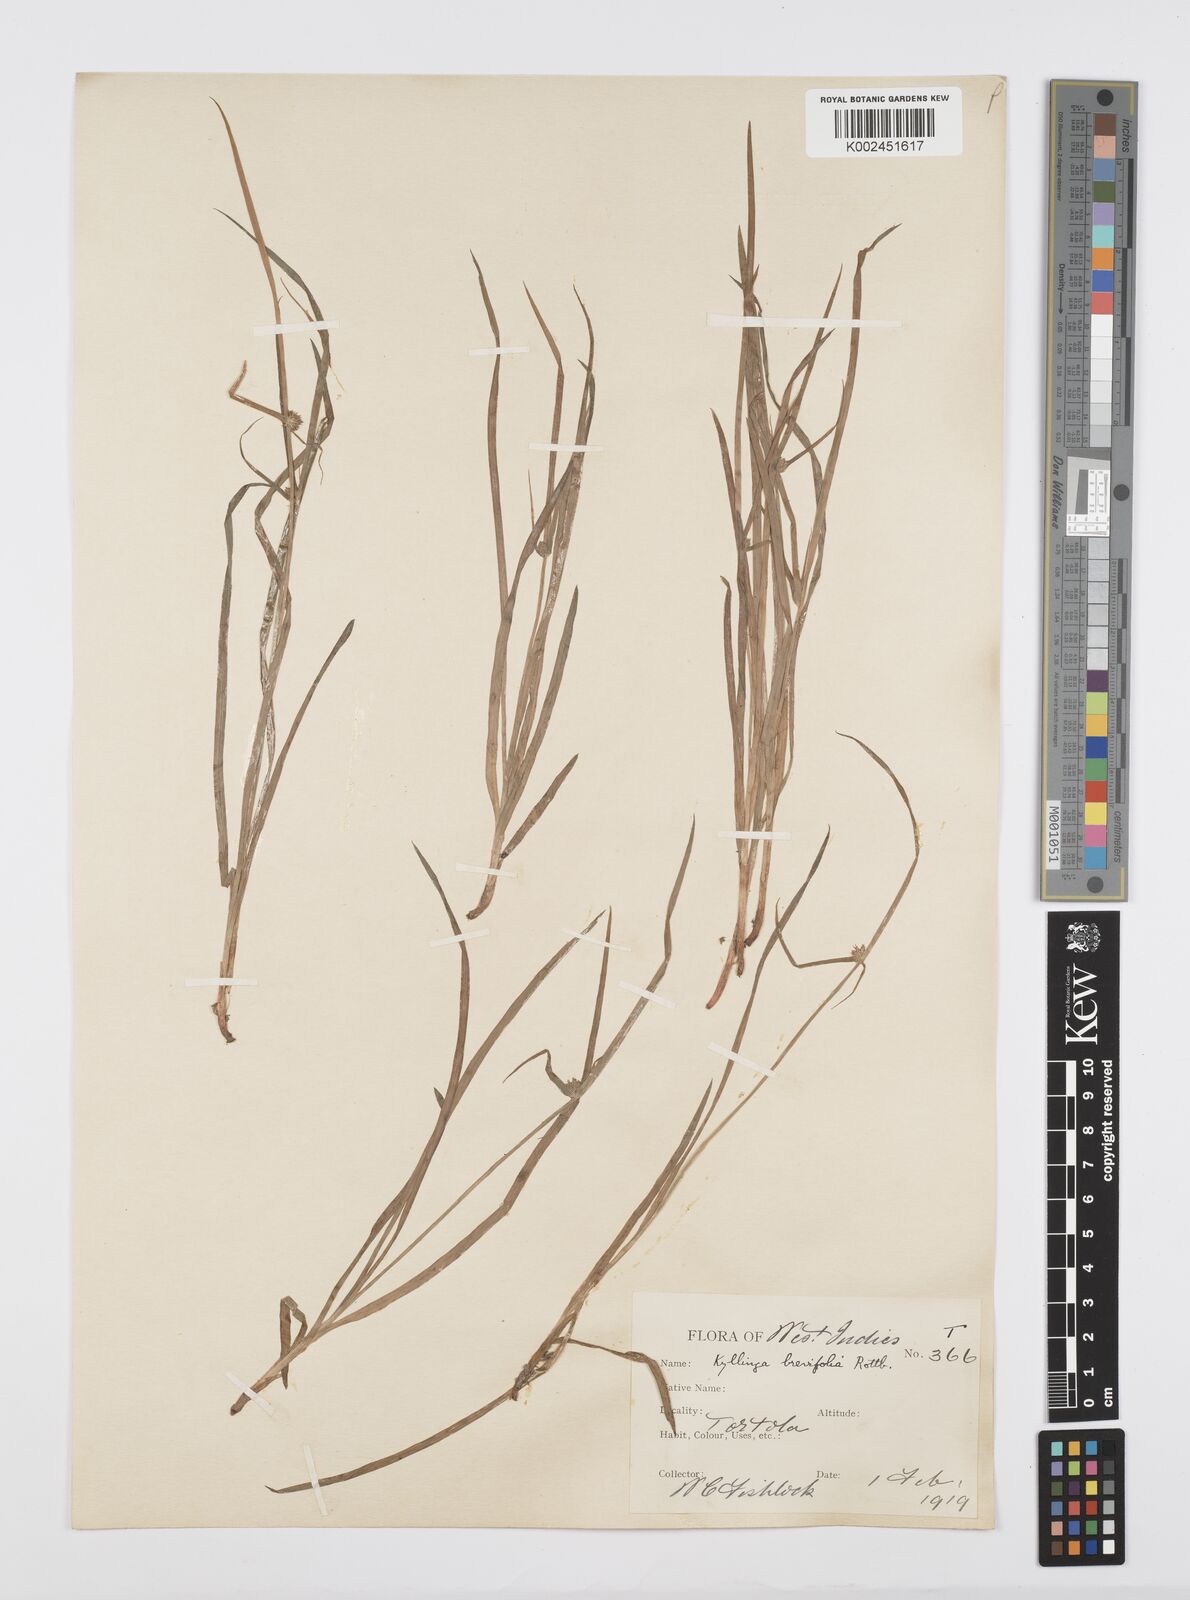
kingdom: Plantae
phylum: Tracheophyta
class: Liliopsida
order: Poales
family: Cyperaceae
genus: Cyperus
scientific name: Cyperus brevifolius
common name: Globe kyllinga
